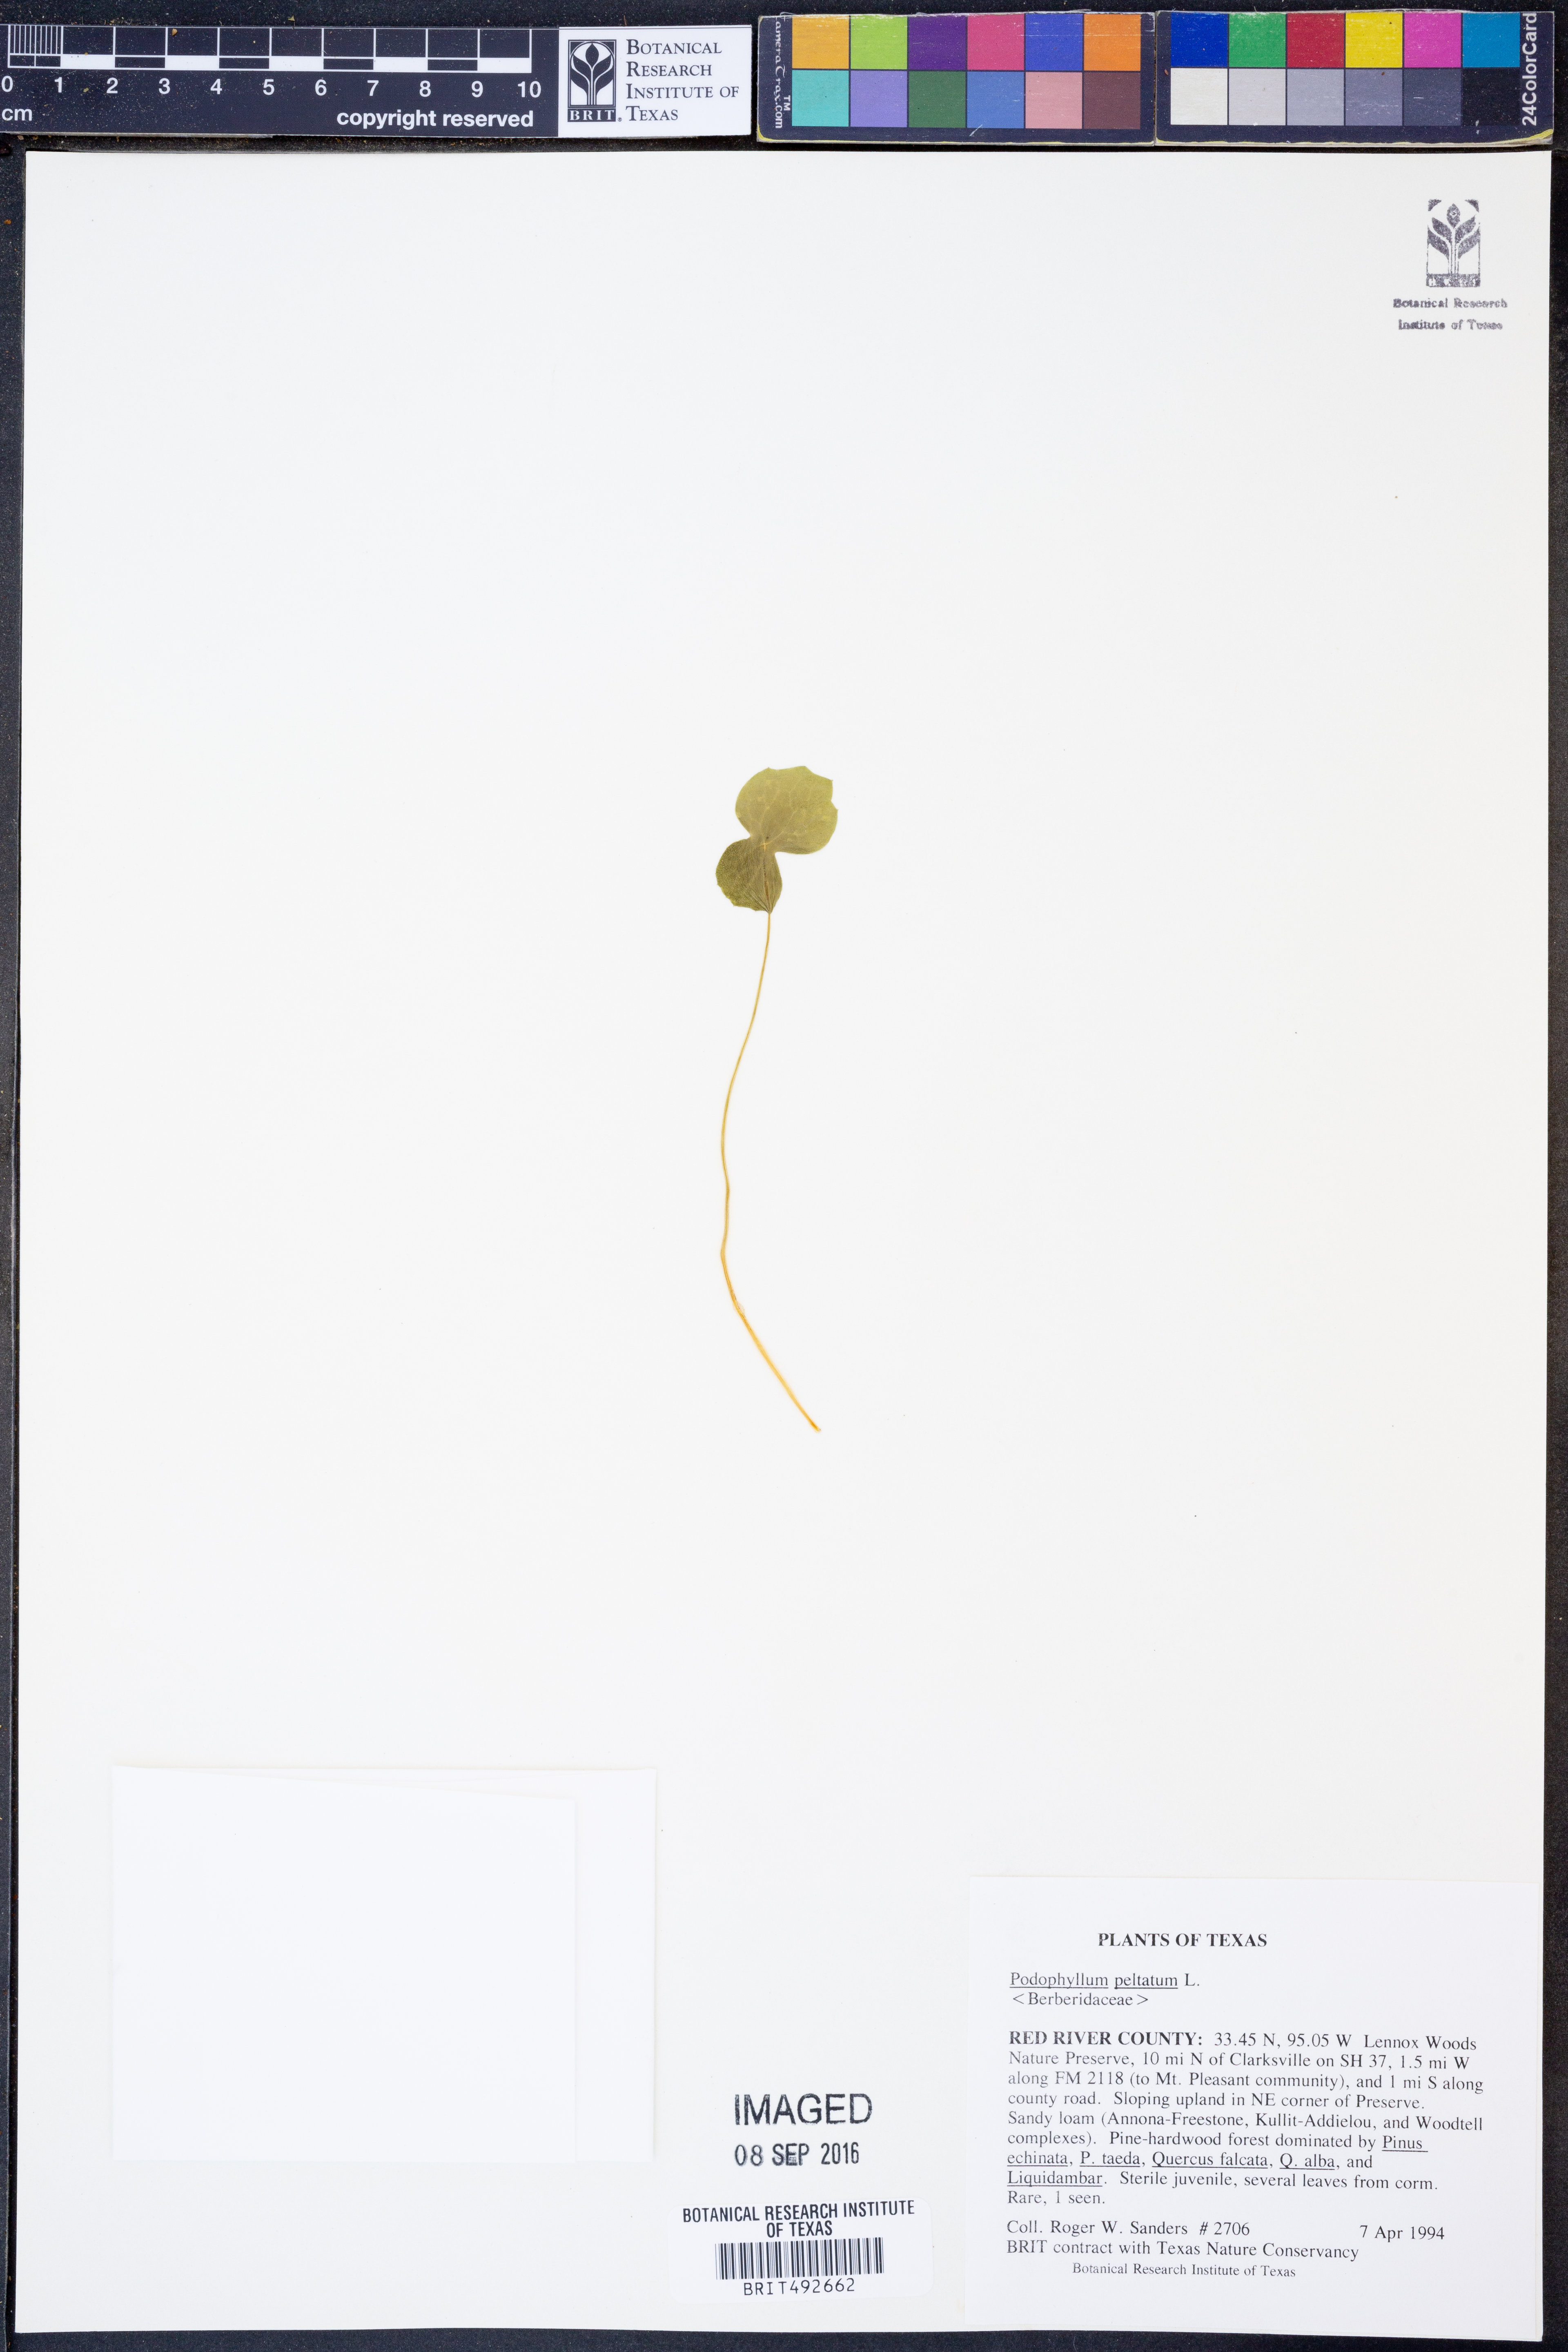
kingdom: Plantae
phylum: Tracheophyta
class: Magnoliopsida
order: Ranunculales
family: Berberidaceae
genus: Podophyllum
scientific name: Podophyllum peltatum
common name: Wild mandrake
